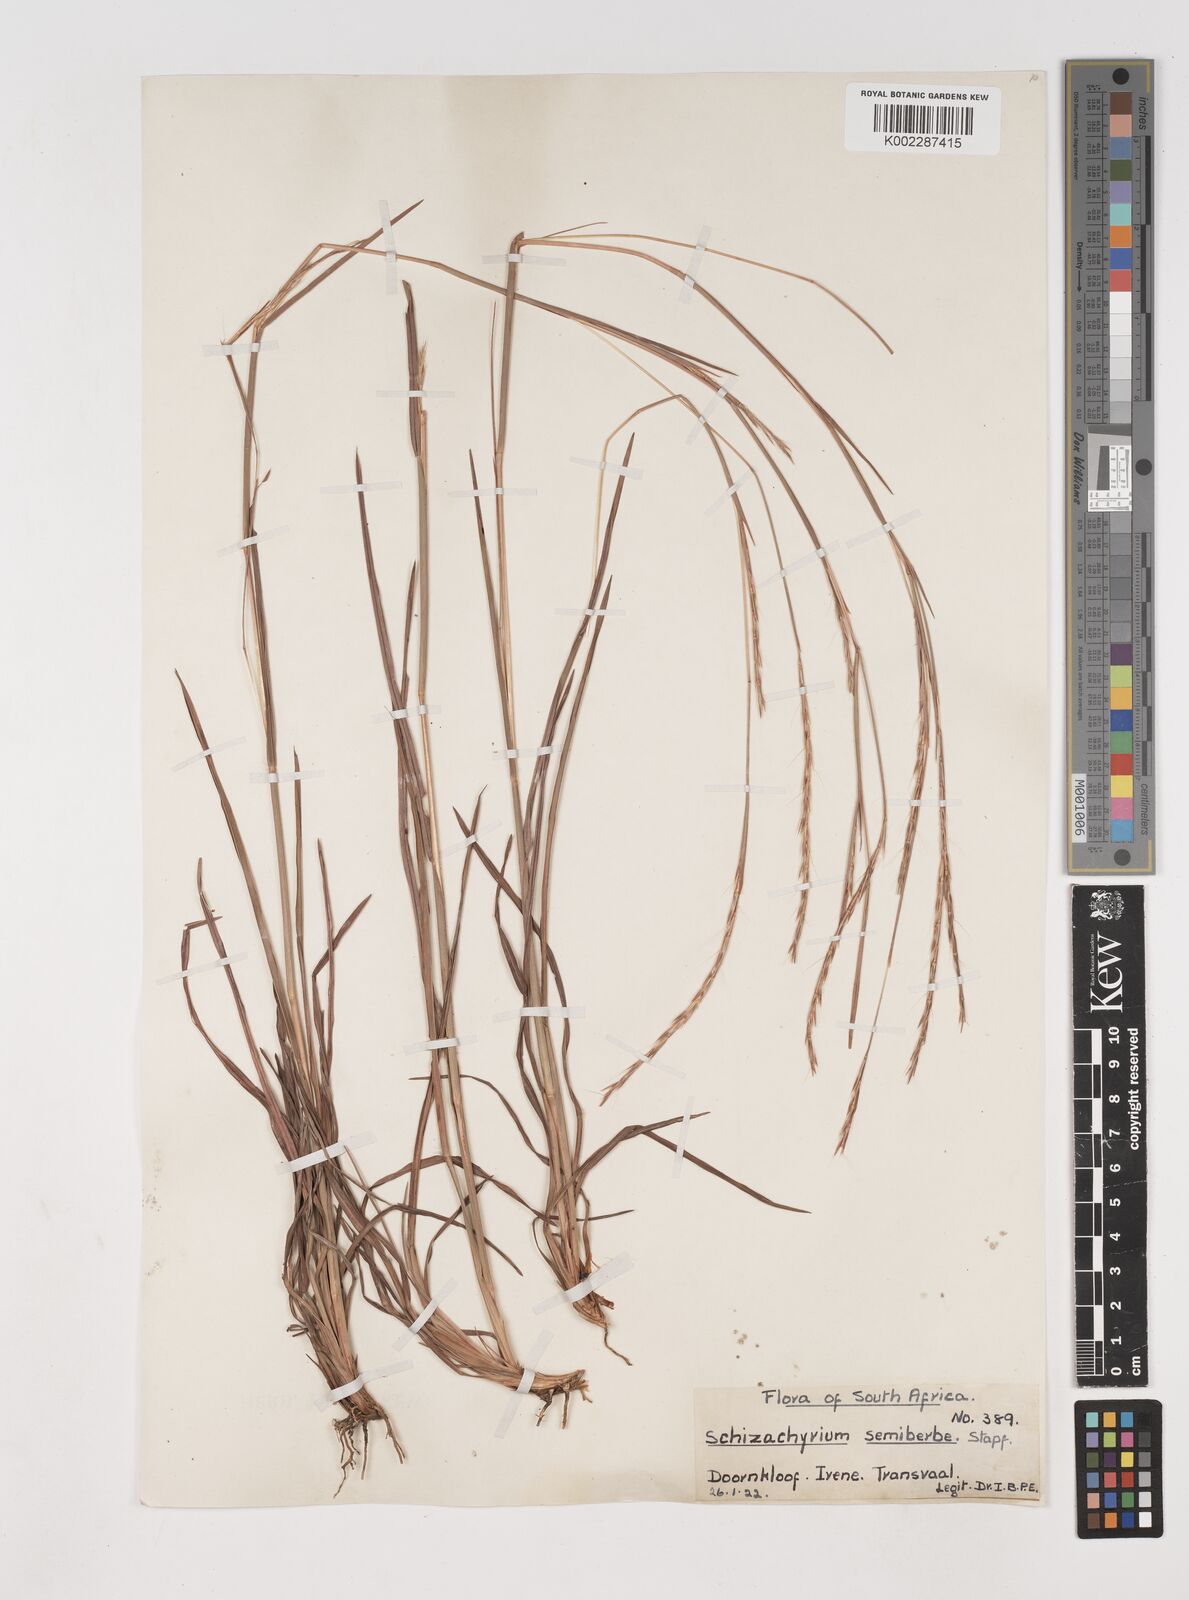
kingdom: Plantae
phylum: Tracheophyta
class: Liliopsida
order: Poales
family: Poaceae
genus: Schizachyrium
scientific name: Schizachyrium sanguineum
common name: Crimson bluestem
